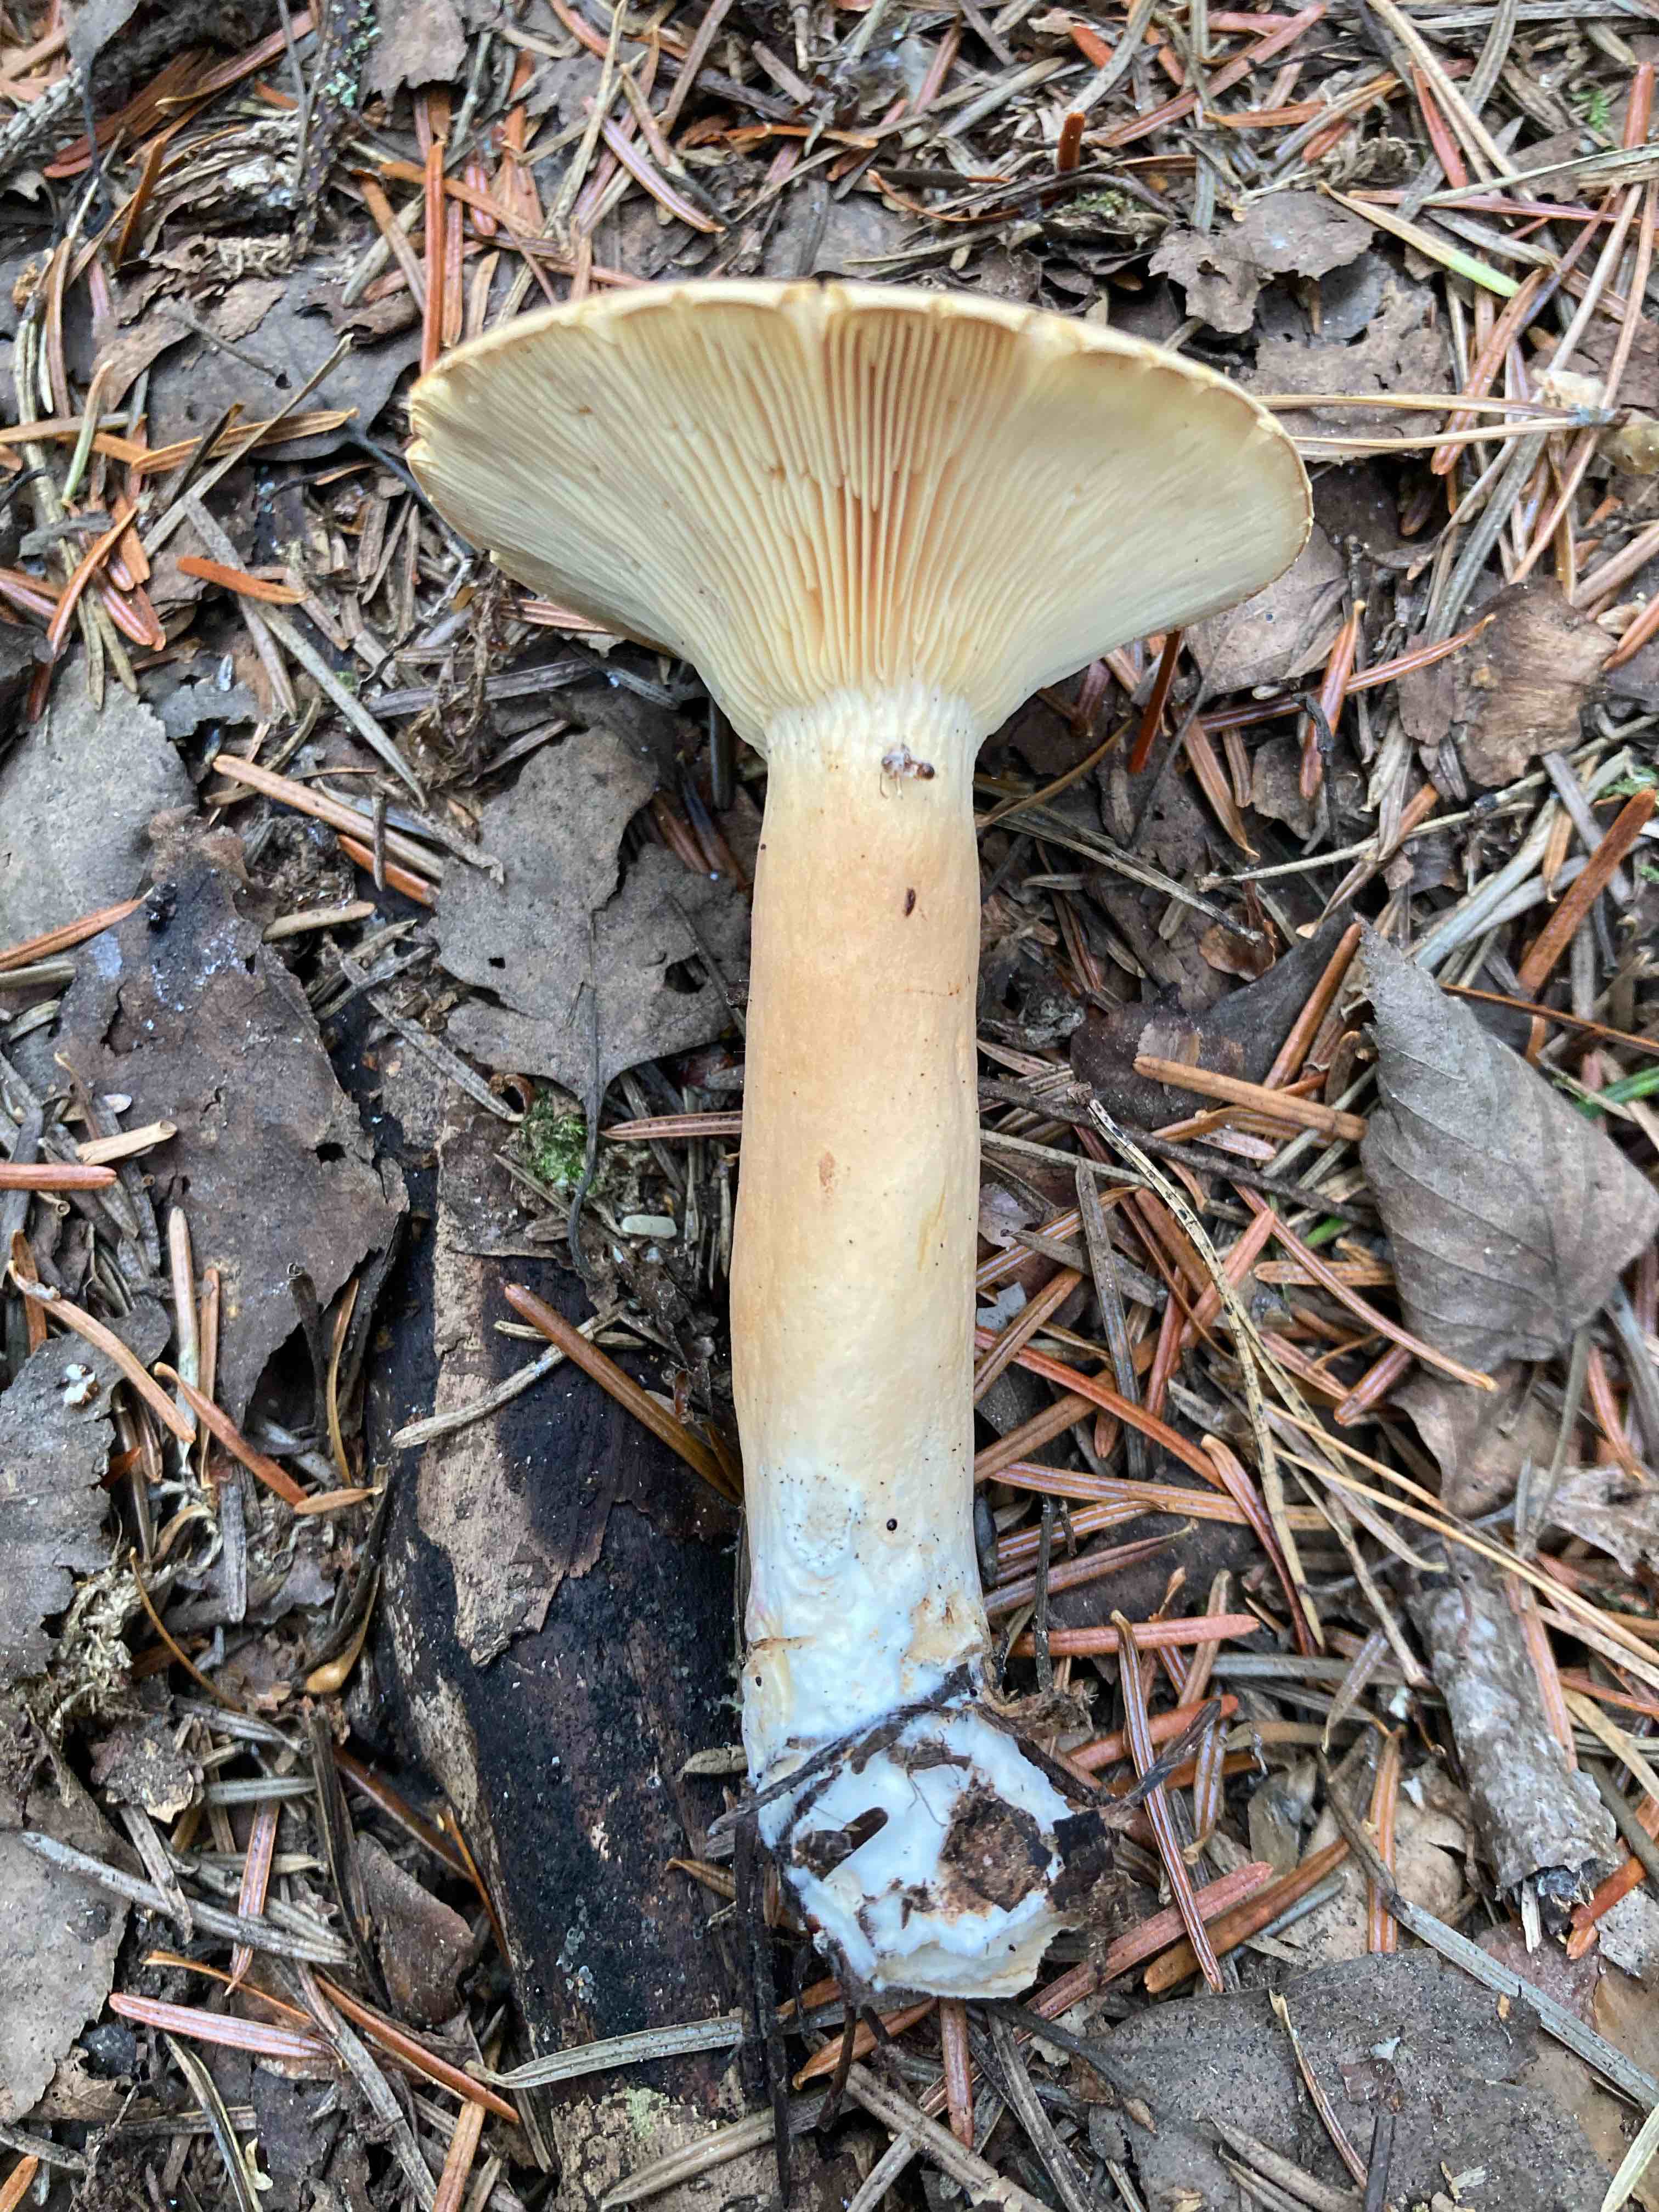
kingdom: Fungi
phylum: Basidiomycota
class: Agaricomycetes
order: Russulales
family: Russulaceae
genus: Lactarius
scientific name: Lactarius helvus
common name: mose-mælkehat
